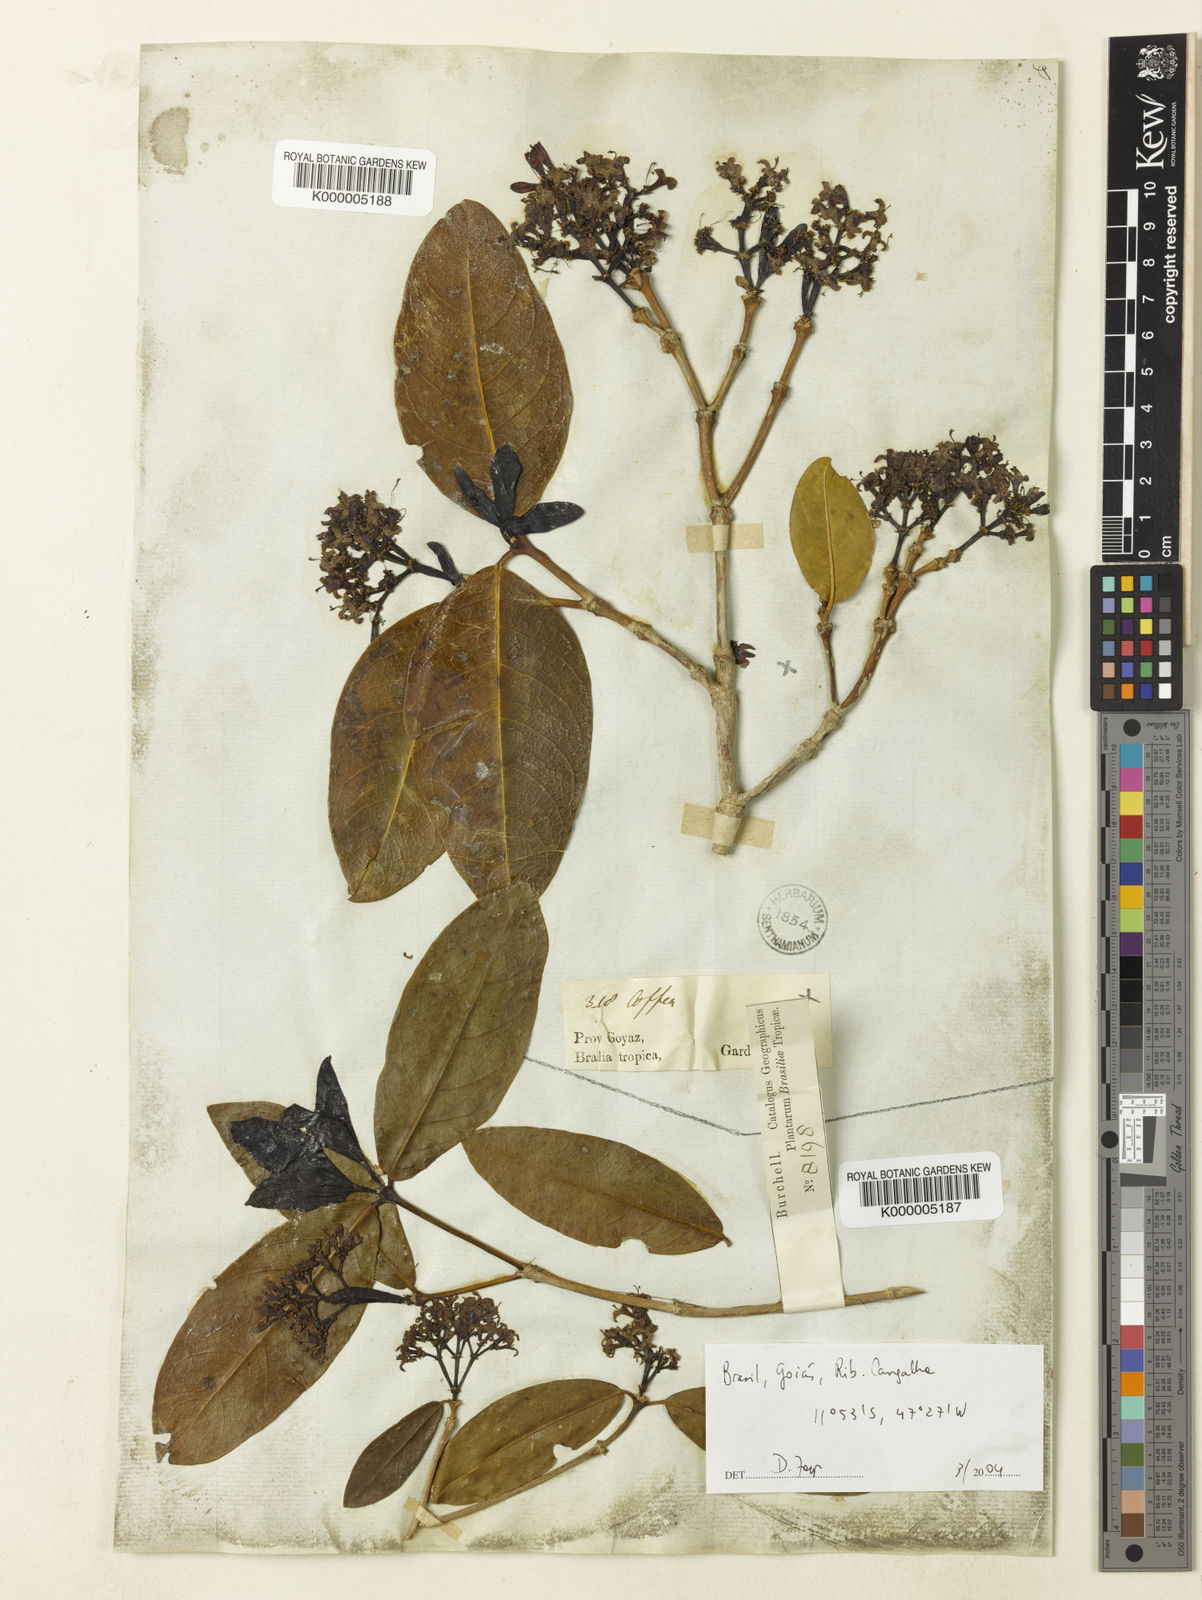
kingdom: Plantae
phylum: Tracheophyta
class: Magnoliopsida
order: Gentianales
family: Rubiaceae
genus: Rudgea
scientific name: Rudgea erioloba
